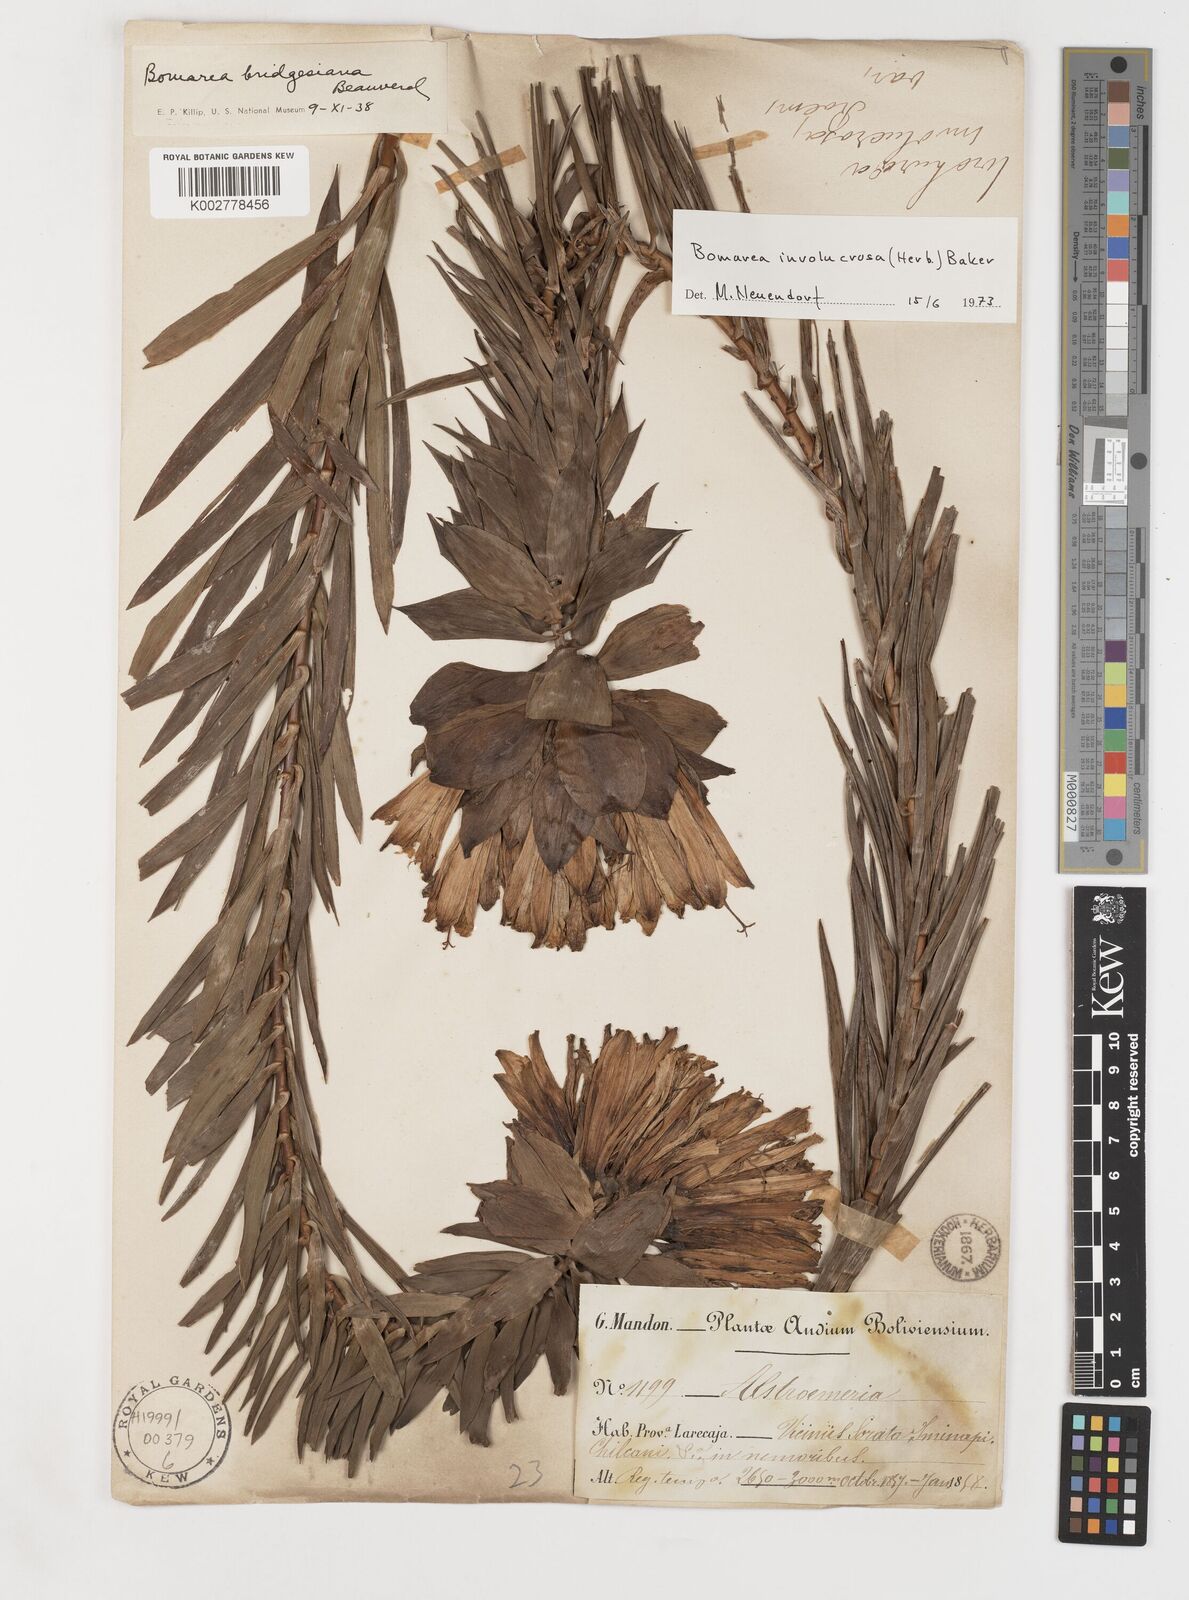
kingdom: Plantae
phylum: Tracheophyta
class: Liliopsida
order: Liliales
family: Alstroemeriaceae
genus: Bomarea
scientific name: Bomarea involucrosa
